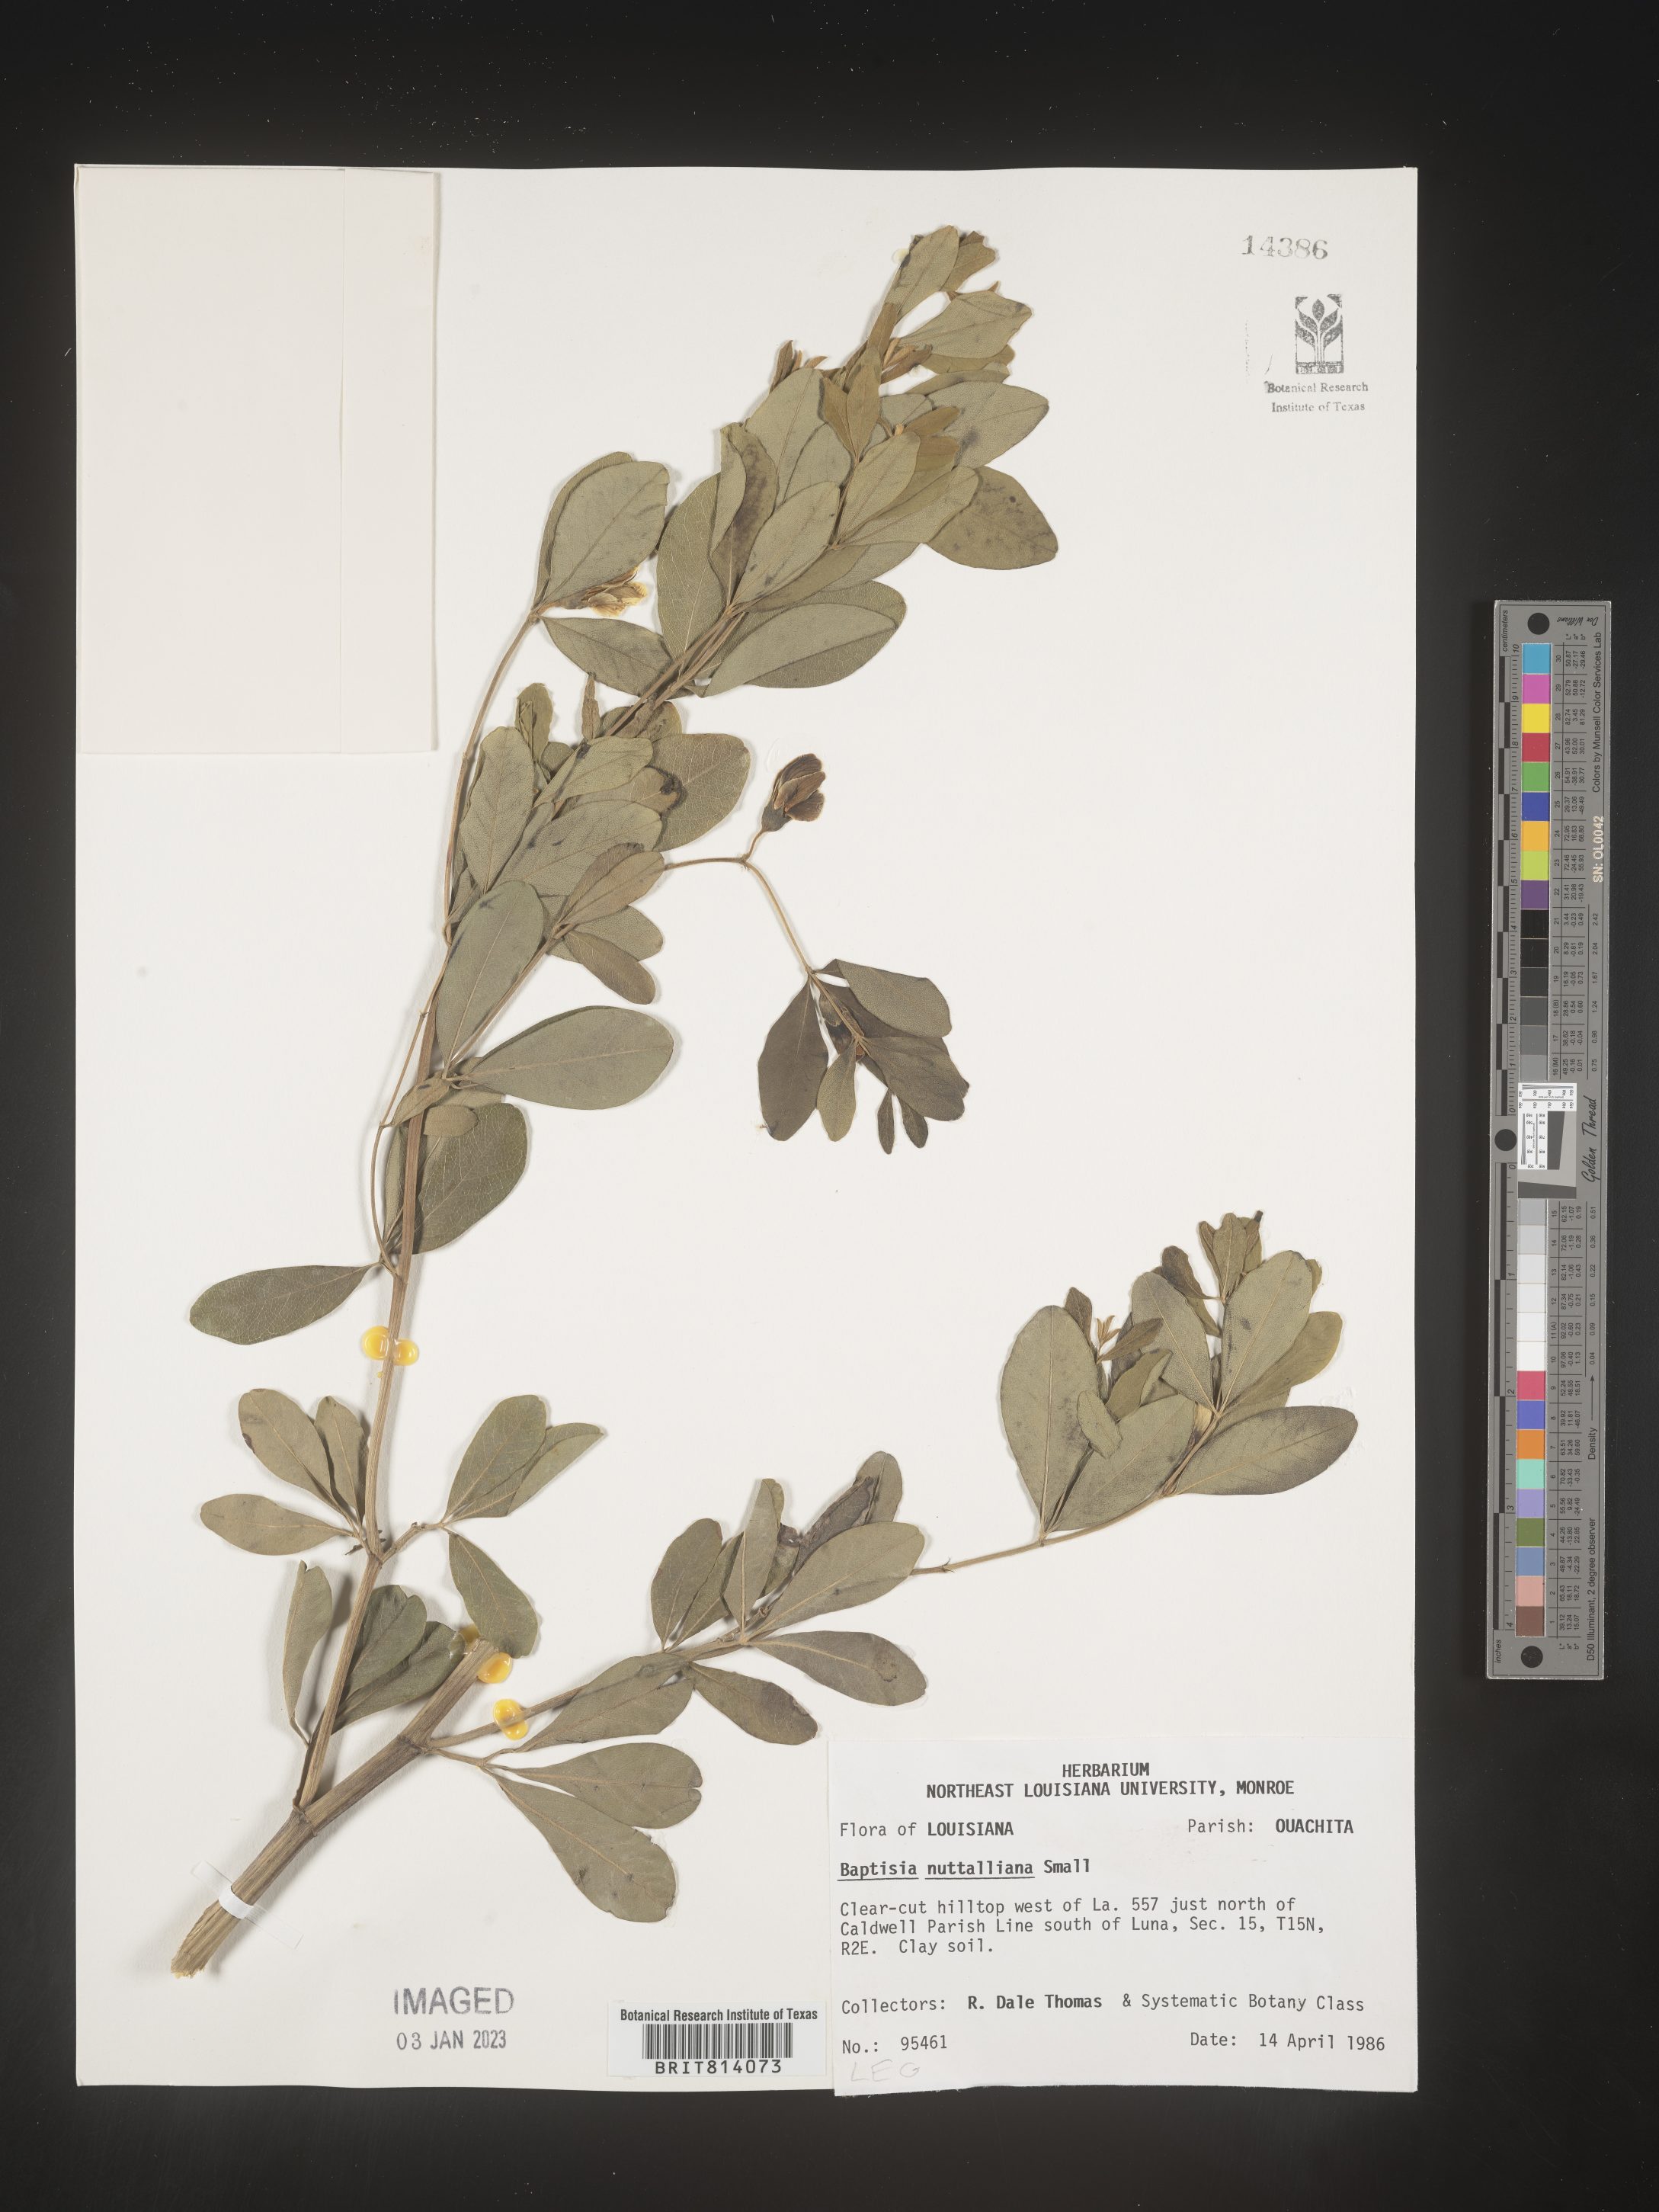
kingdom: Plantae
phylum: Tracheophyta
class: Magnoliopsida
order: Fabales
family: Fabaceae
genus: Baptisia
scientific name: Baptisia nuttalliana
